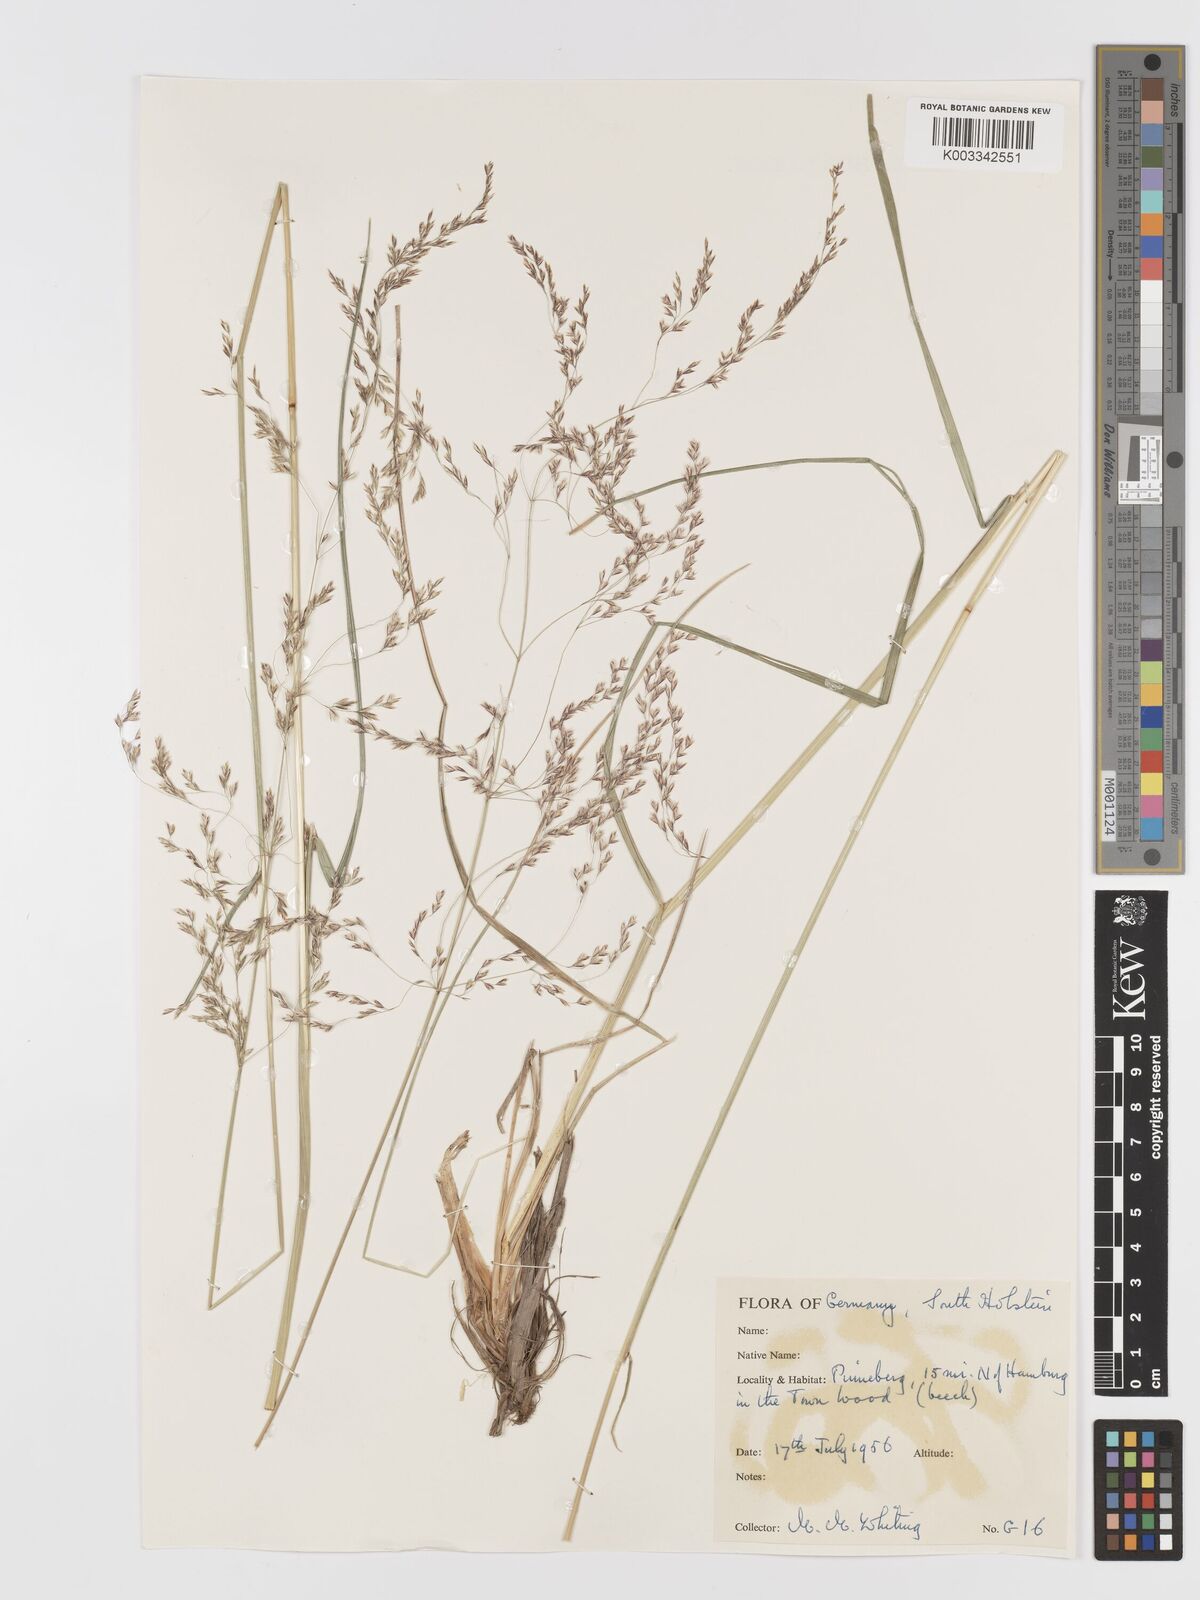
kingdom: Plantae
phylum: Tracheophyta
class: Liliopsida
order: Poales
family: Poaceae
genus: Agrostis
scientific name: Agrostis
